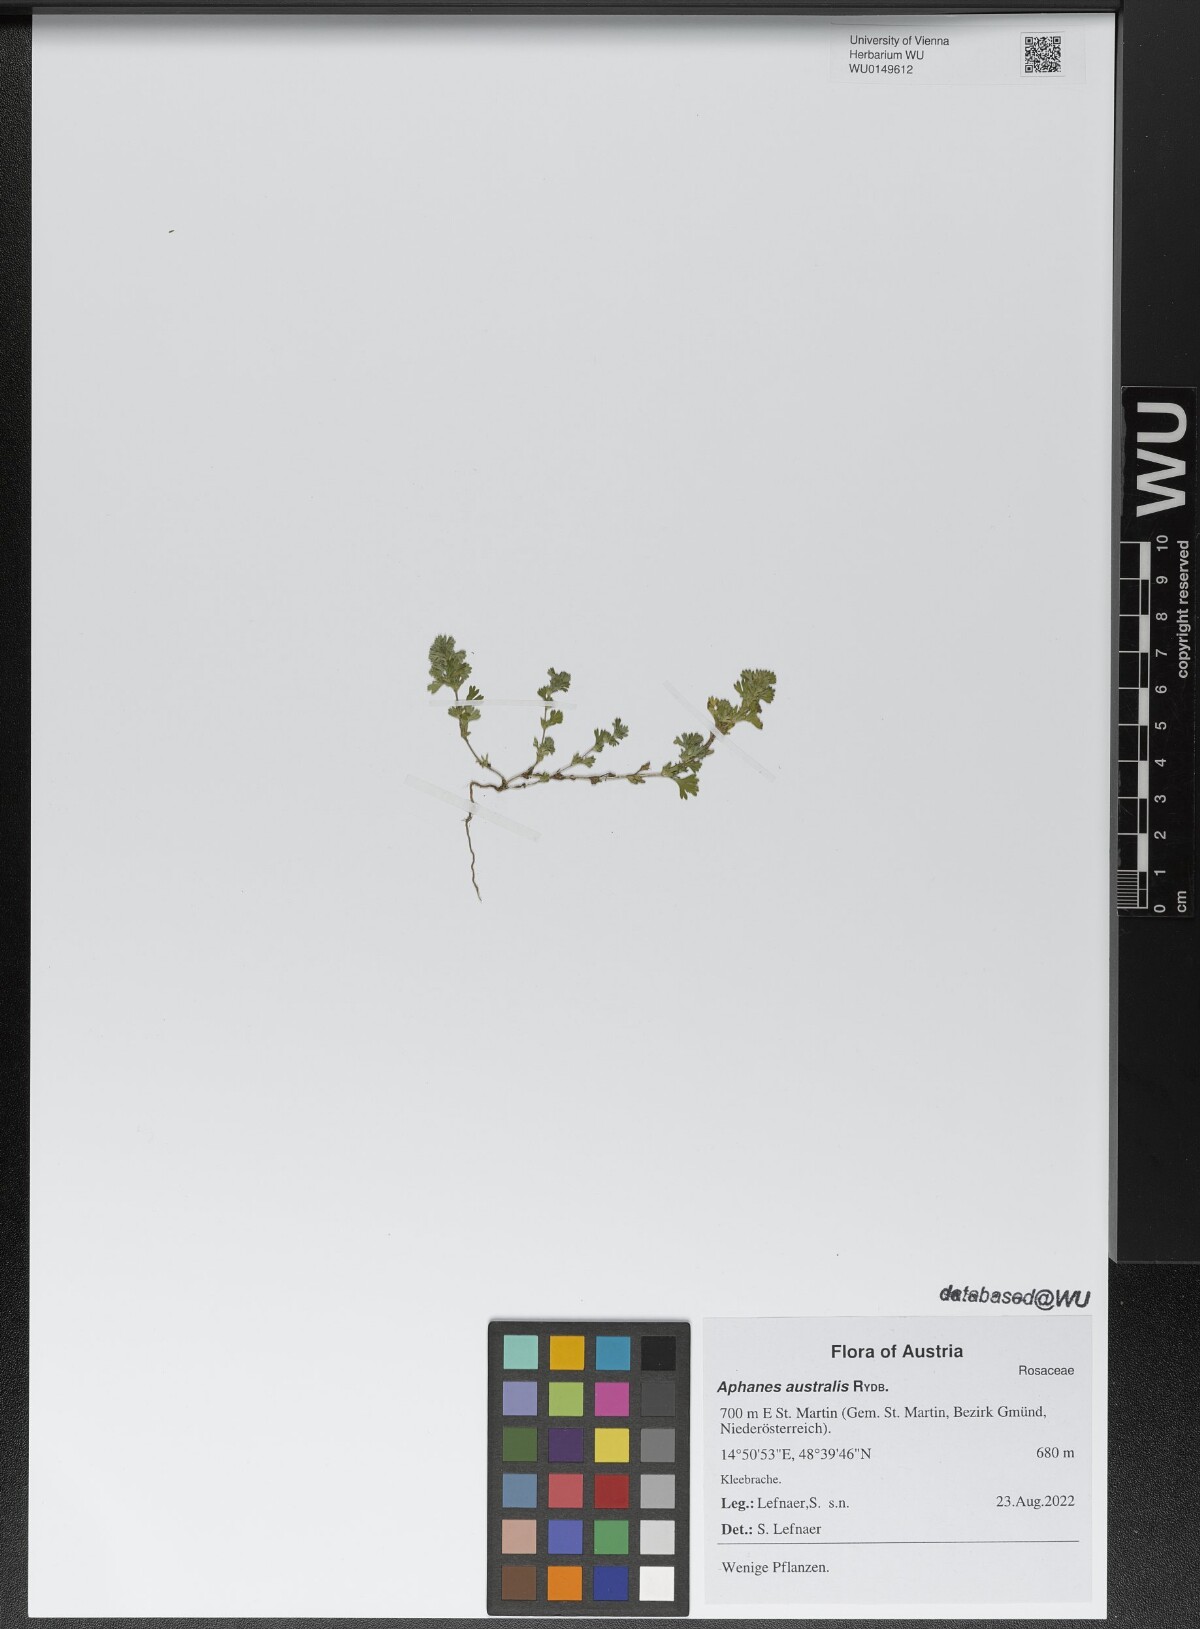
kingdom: Plantae
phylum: Tracheophyta
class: Magnoliopsida
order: Rosales
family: Rosaceae
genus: Aphanes
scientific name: Aphanes australis
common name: Slender parsley-piert
